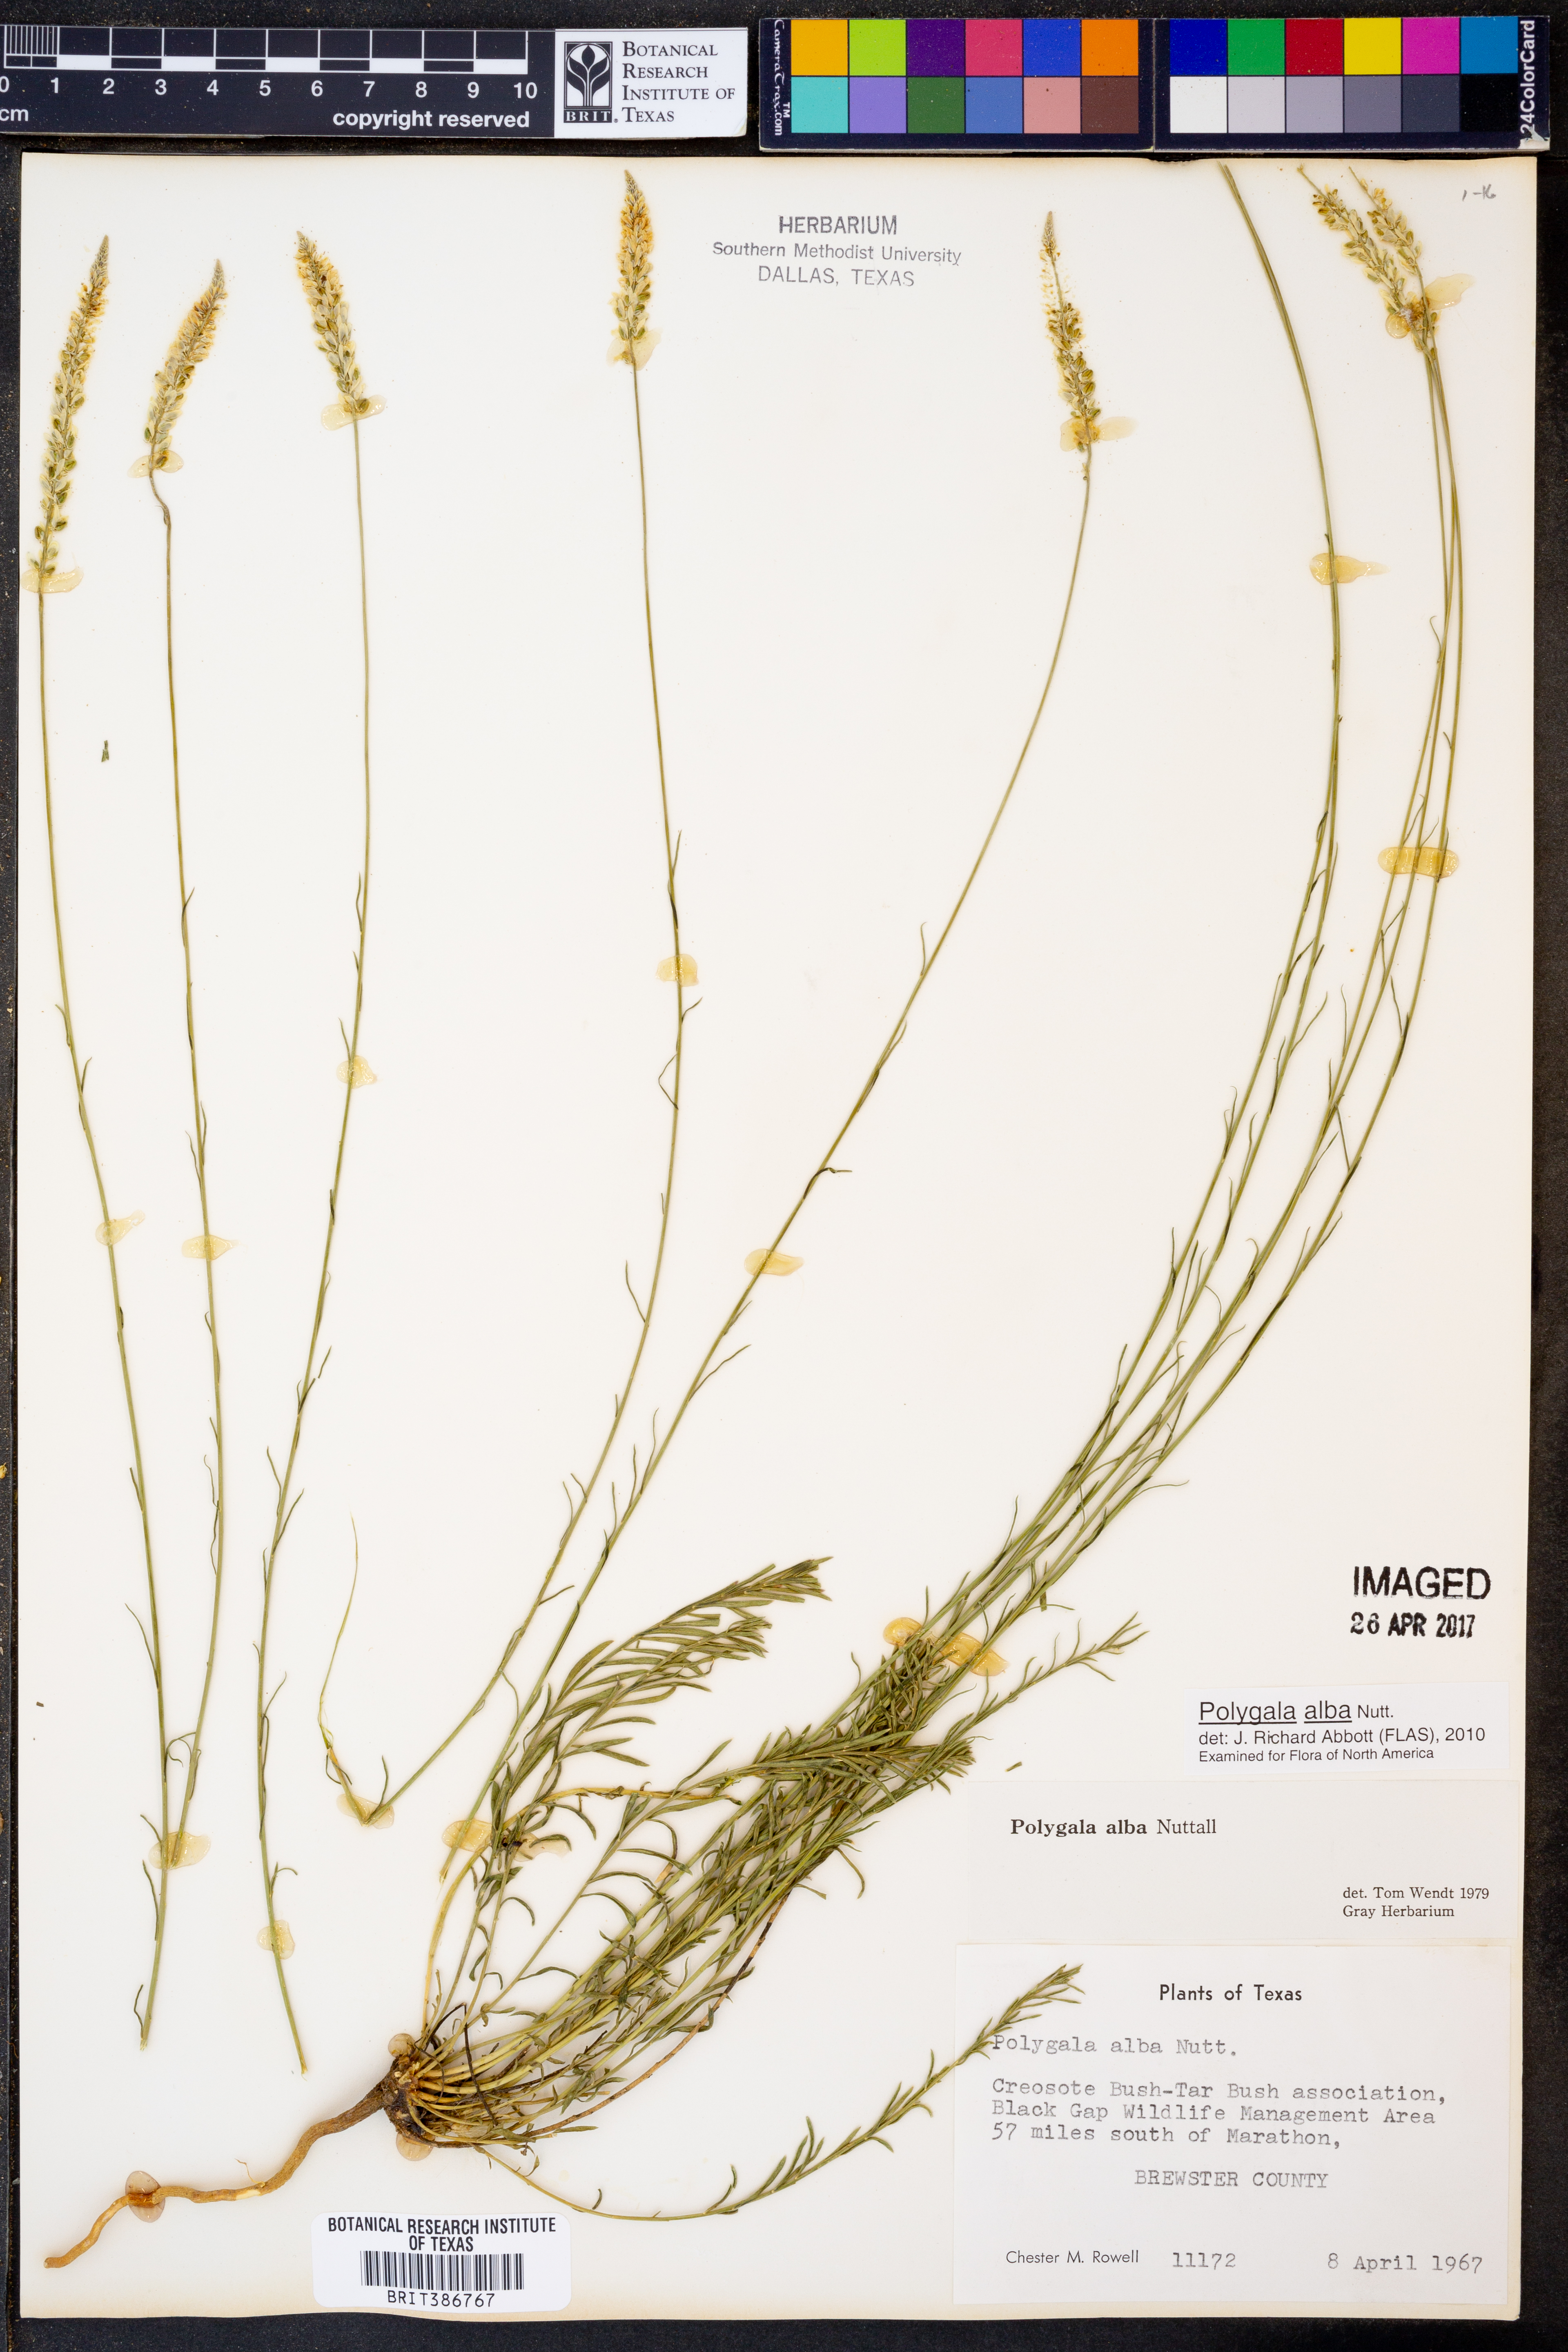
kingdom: Plantae
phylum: Tracheophyta
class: Magnoliopsida
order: Fabales
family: Polygalaceae
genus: Polygala
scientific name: Polygala alba
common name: White milkwort
